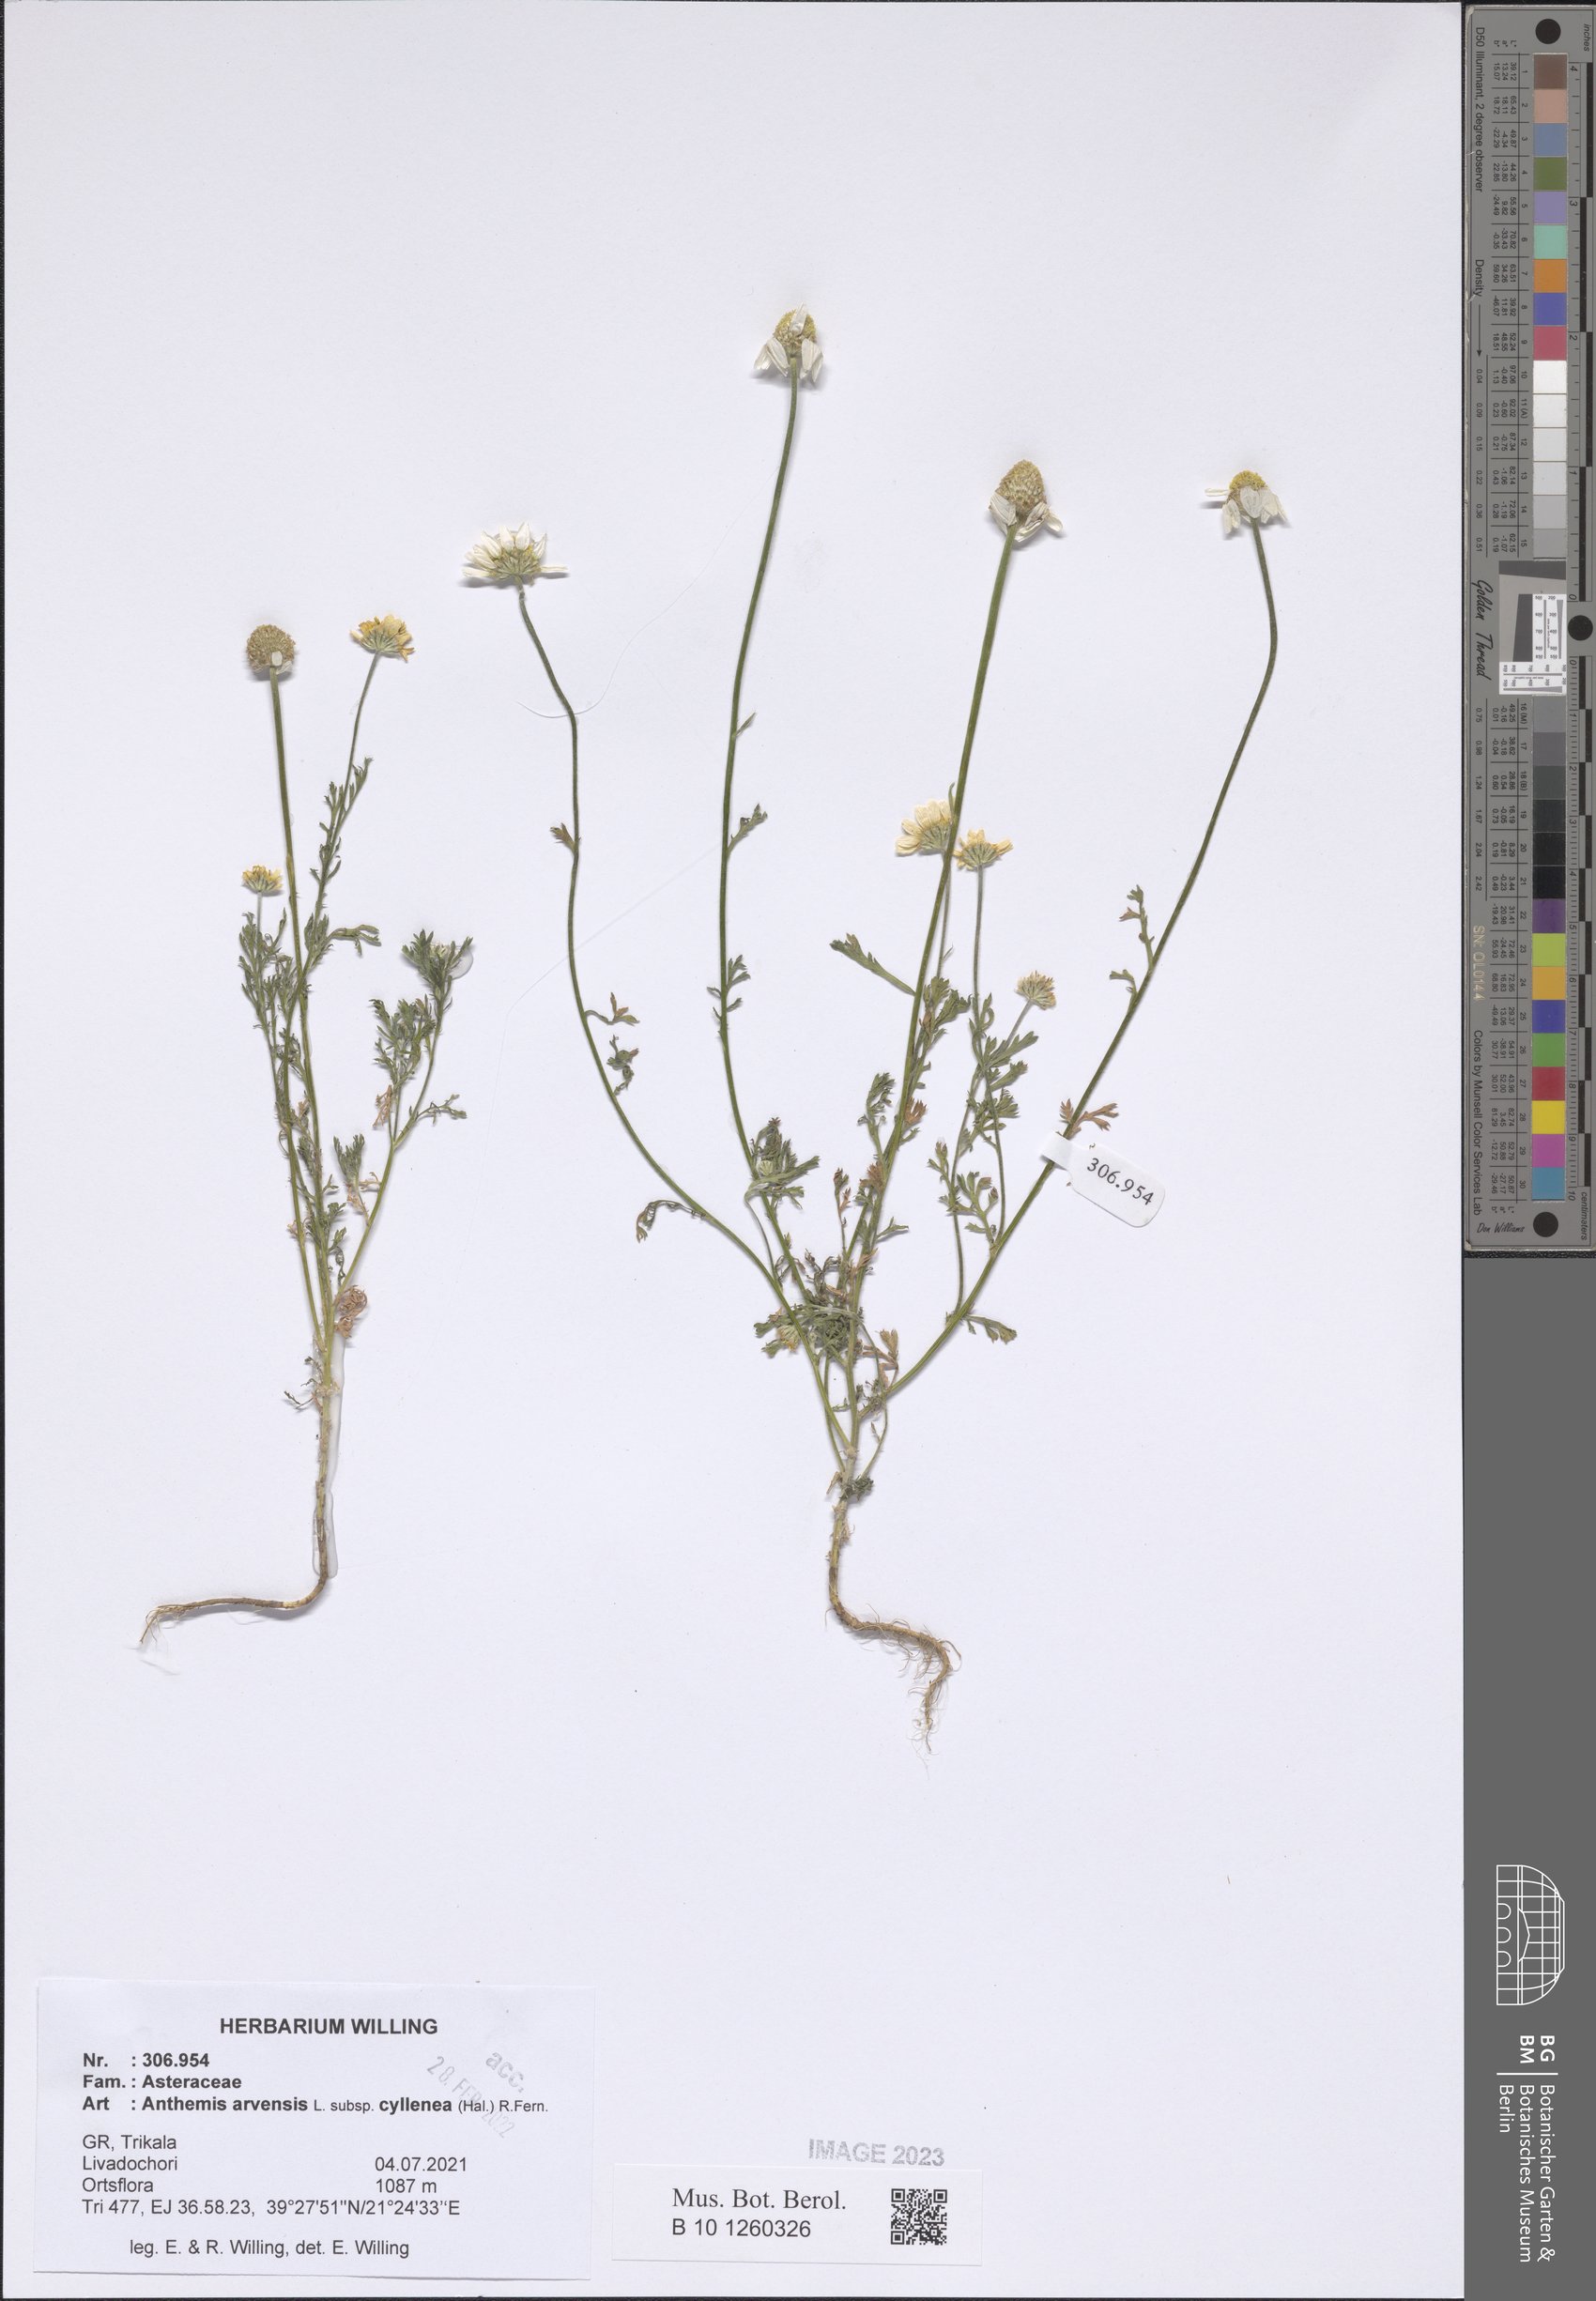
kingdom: Plantae
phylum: Tracheophyta
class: Magnoliopsida
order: Asterales
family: Asteraceae
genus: Anthemis
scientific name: Anthemis arvensis
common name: Corn chamomile
